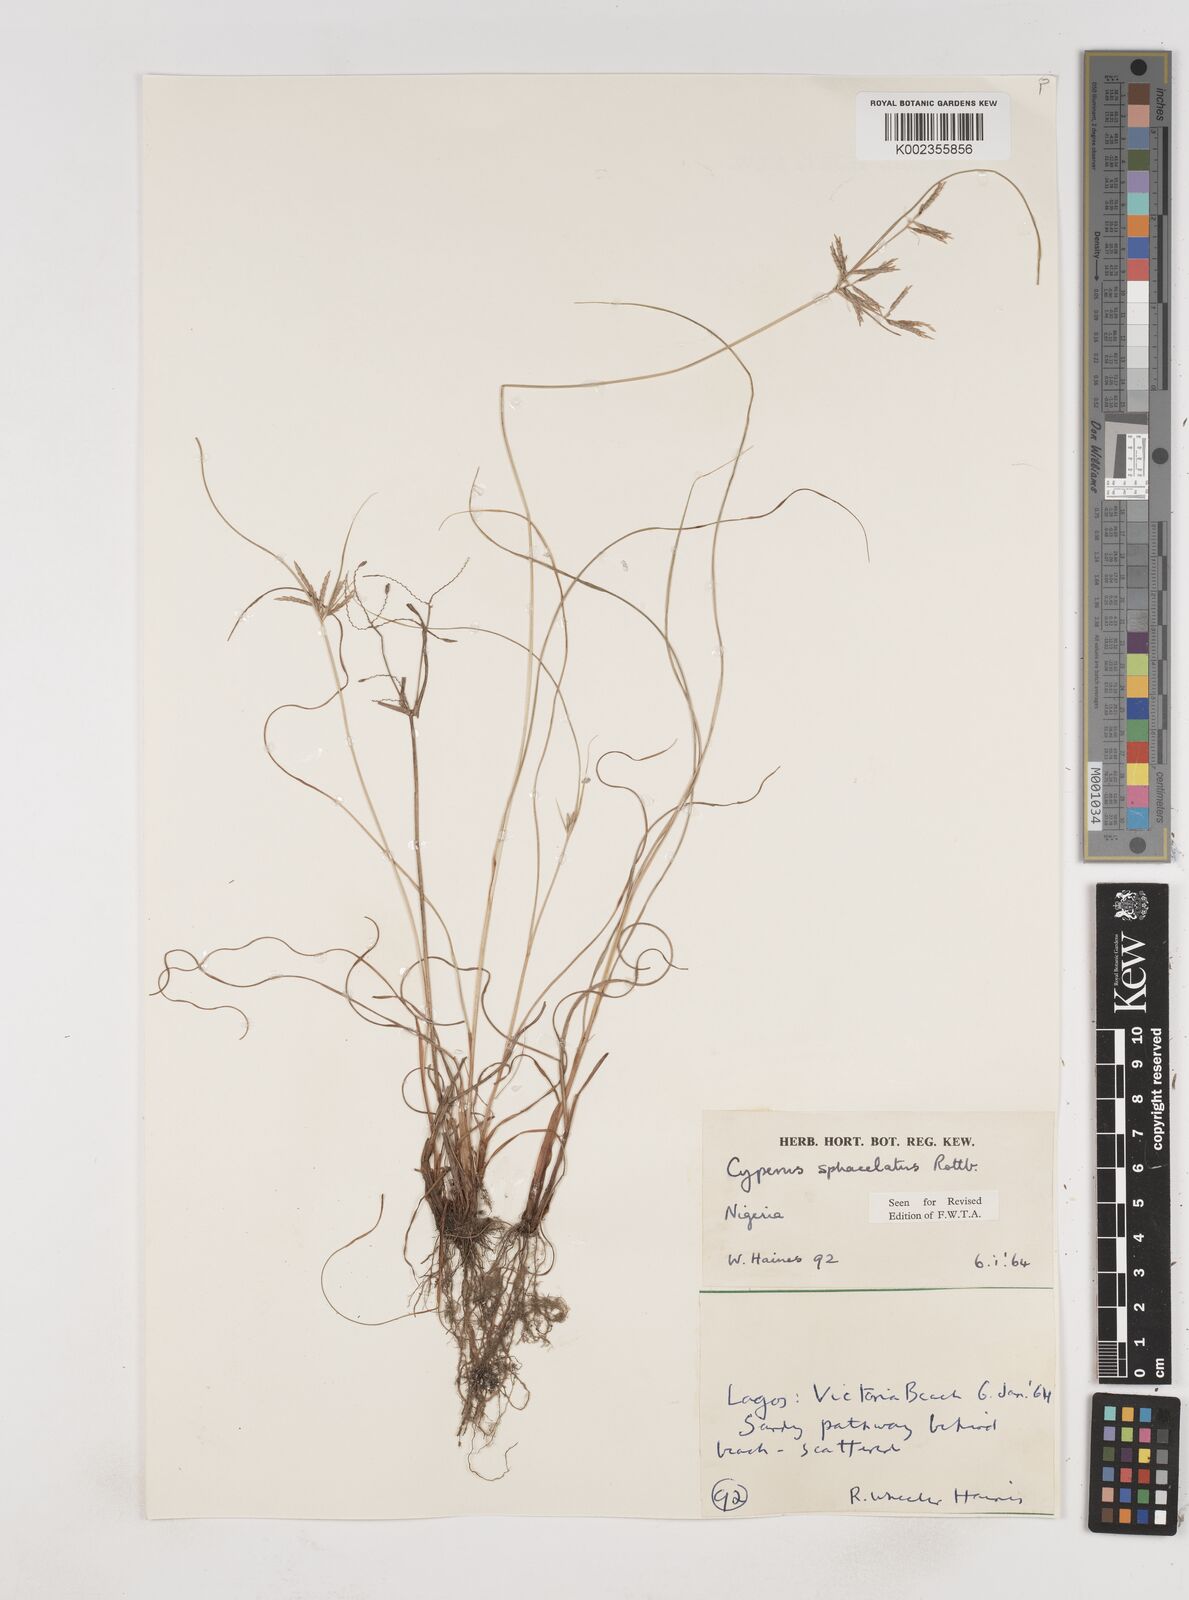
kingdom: Plantae
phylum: Tracheophyta
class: Liliopsida
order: Poales
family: Cyperaceae
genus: Cyperus
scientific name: Cyperus sphacelatus
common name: Roadside flatsedge
